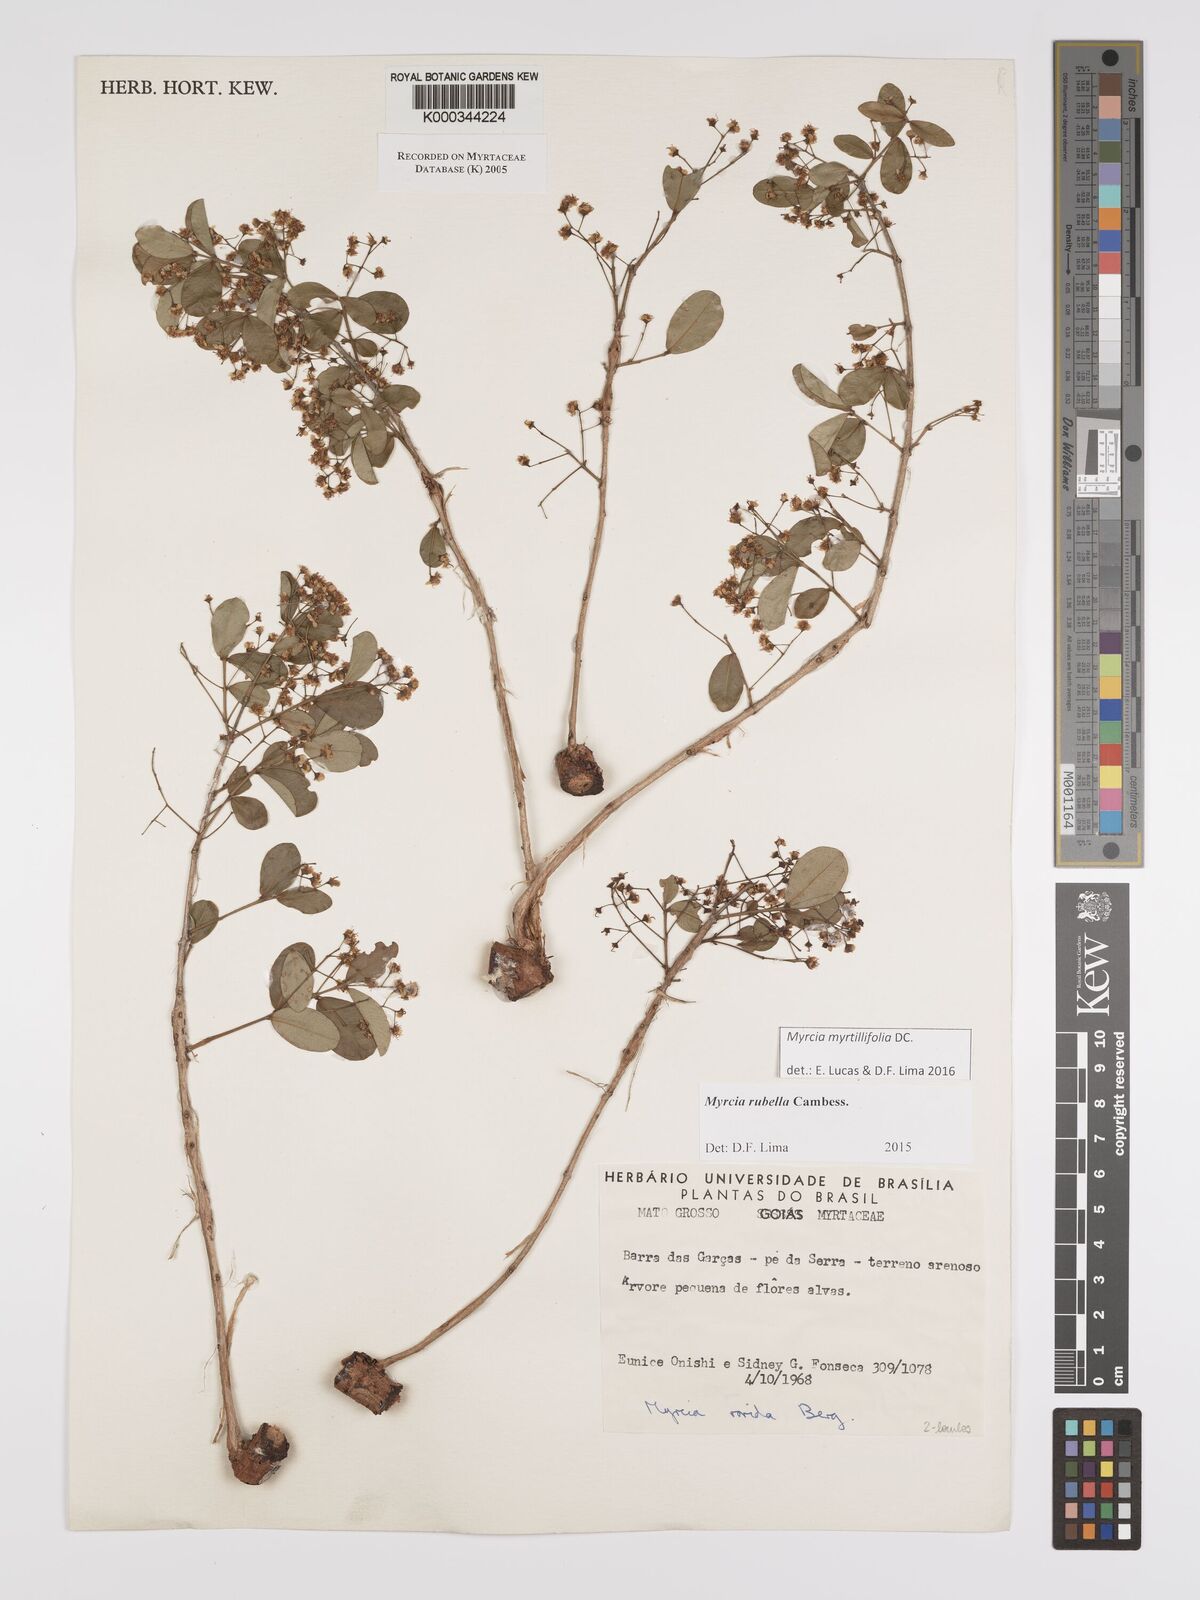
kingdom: Plantae
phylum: Tracheophyta
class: Magnoliopsida
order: Myrtales
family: Myrtaceae
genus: Myrcia
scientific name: Myrcia guianensis
